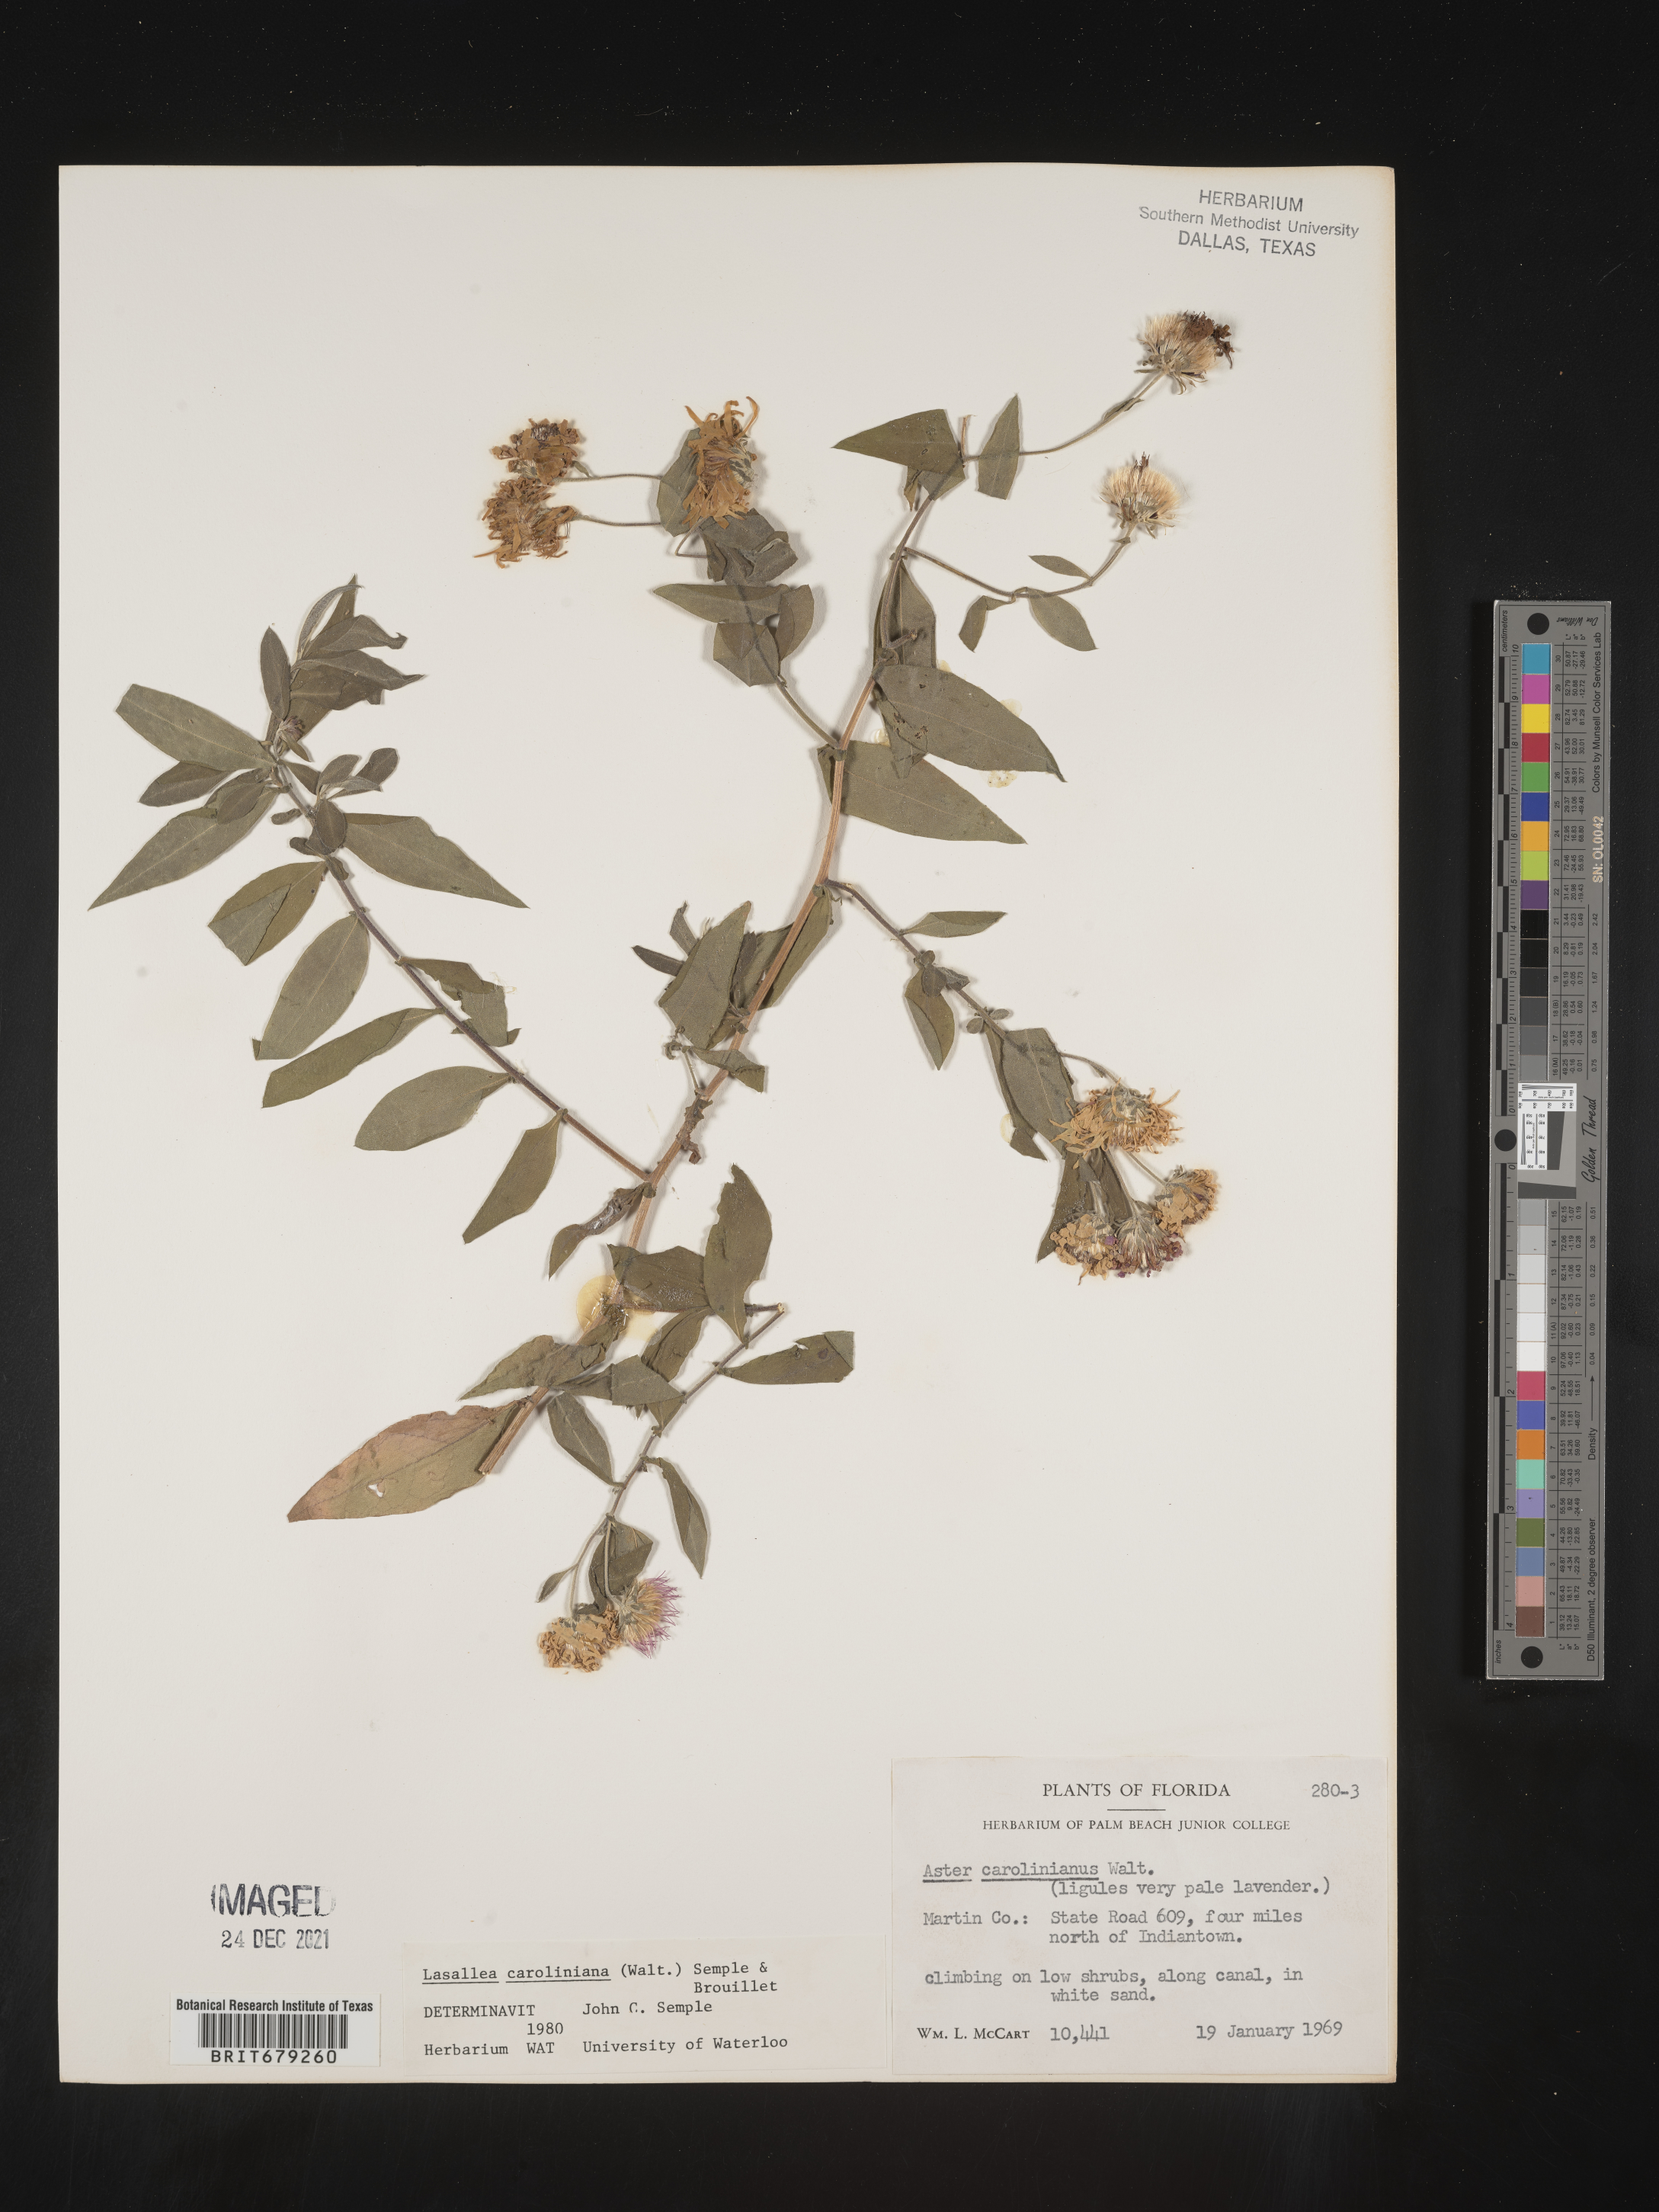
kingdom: Plantae
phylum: Tracheophyta
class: Magnoliopsida
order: Asterales
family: Asteraceae
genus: Ampelaster
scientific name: Ampelaster
